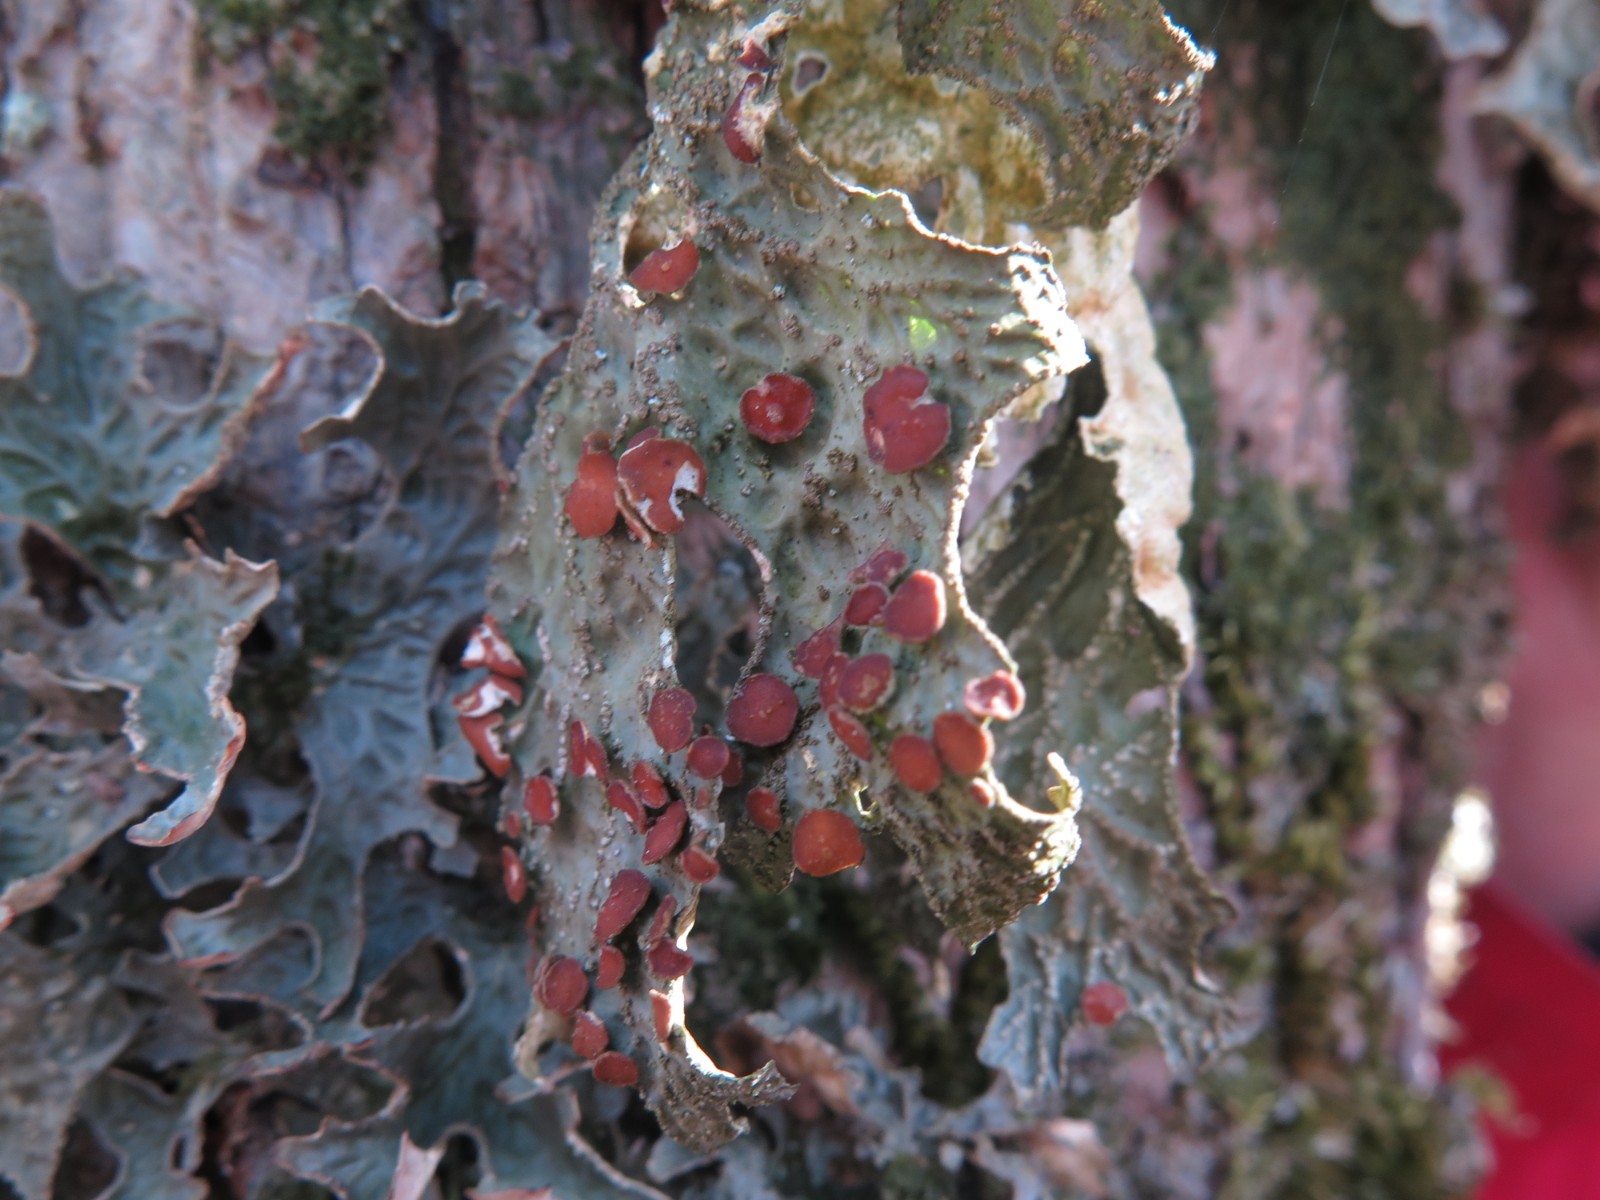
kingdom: Fungi
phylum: Ascomycota
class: Lecanoromycetes
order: Peltigerales
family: Lobariaceae
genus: Lobaria
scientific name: Lobaria pulmonaria
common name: almindelig lungelav
